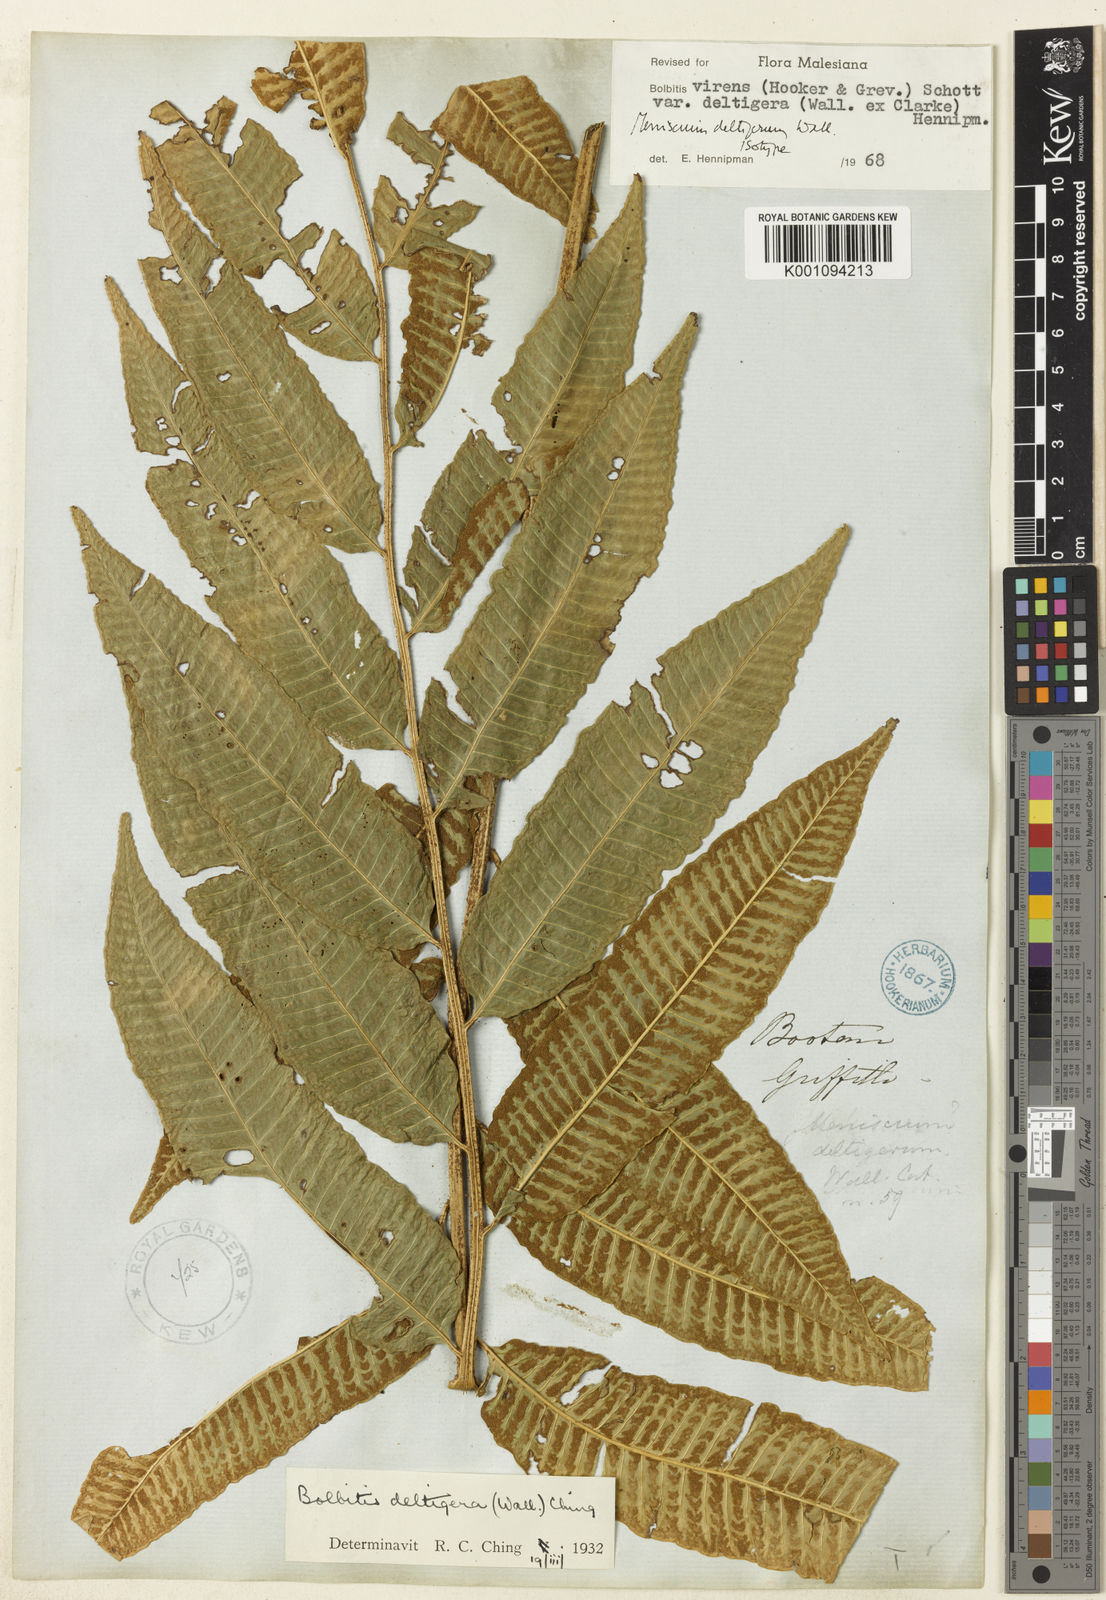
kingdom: Plantae
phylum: Tracheophyta
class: Polypodiopsida
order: Polypodiales
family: Dryopteridaceae
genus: Bolbitis
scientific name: Bolbitis deltigera
